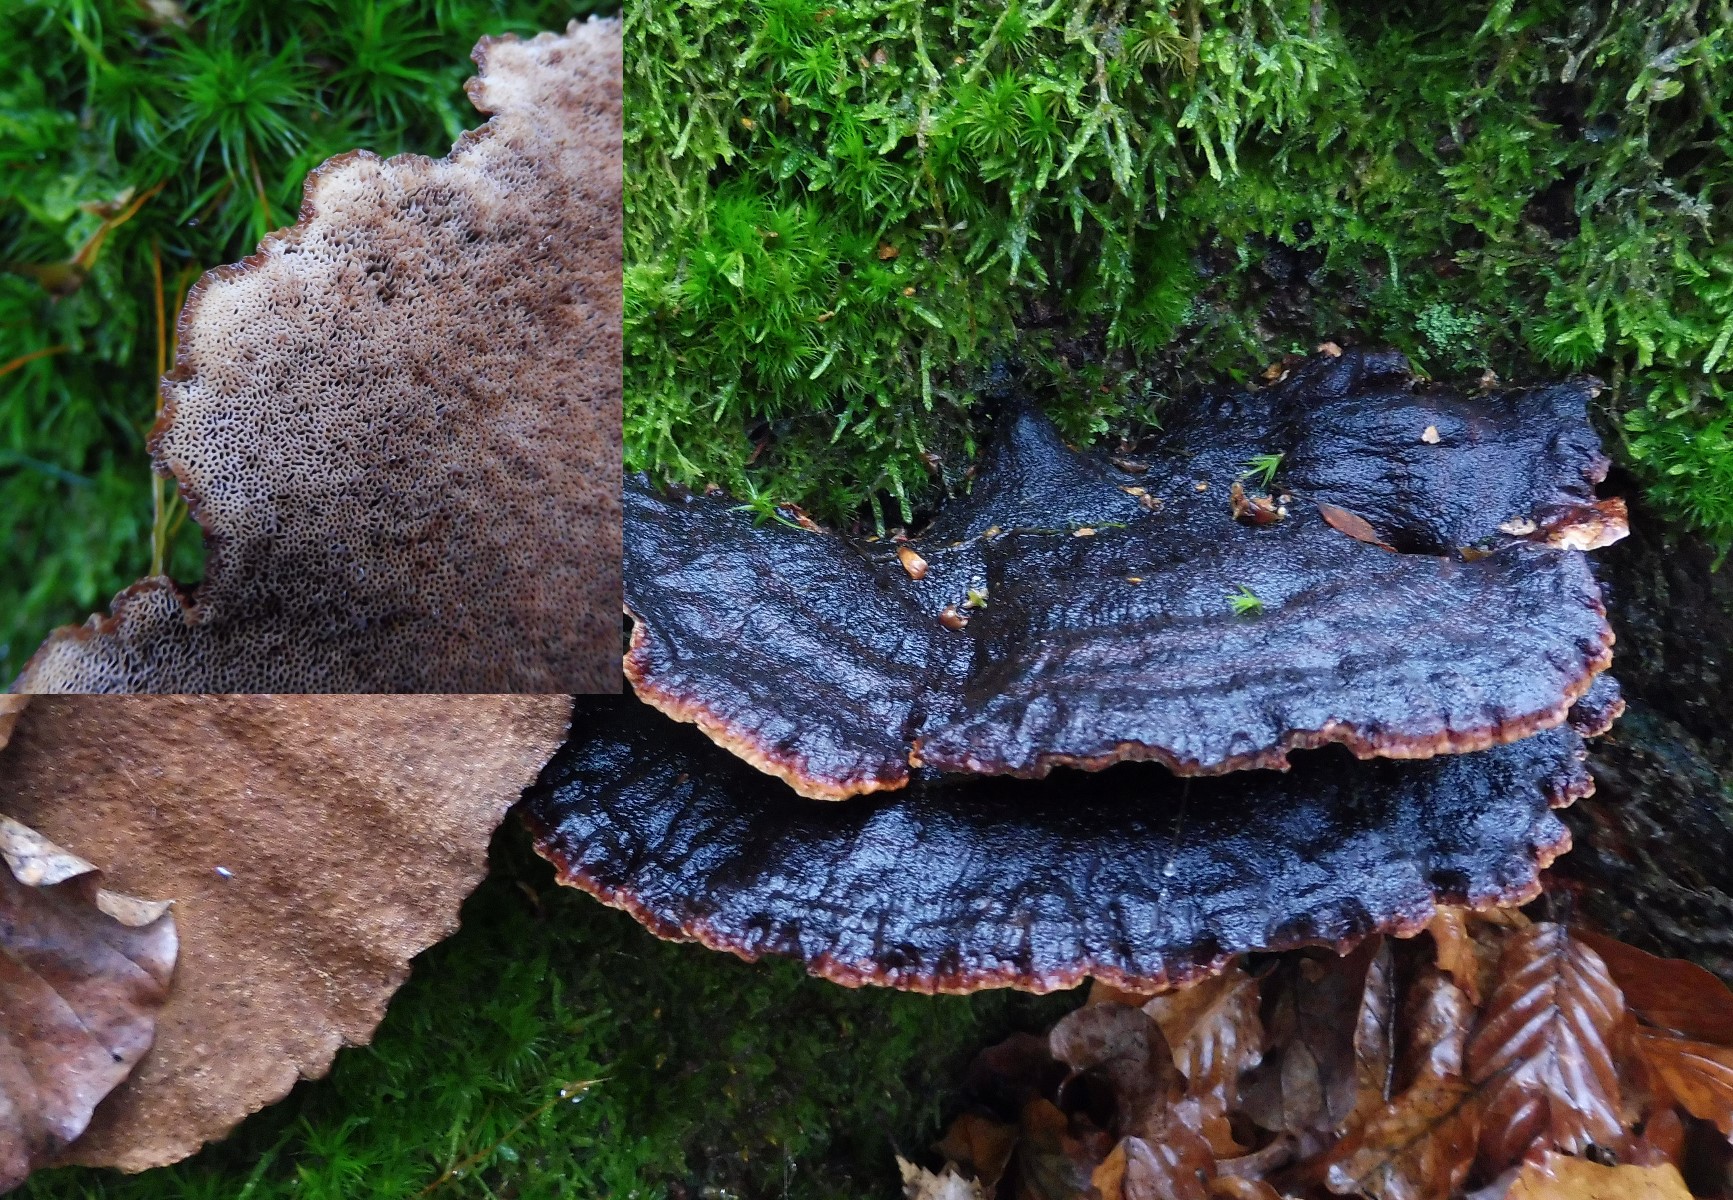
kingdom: Fungi
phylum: Basidiomycota
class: Agaricomycetes
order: Polyporales
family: Ischnodermataceae
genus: Ischnoderma
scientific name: Ischnoderma benzoinum
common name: gran-tjæreporesvamp
